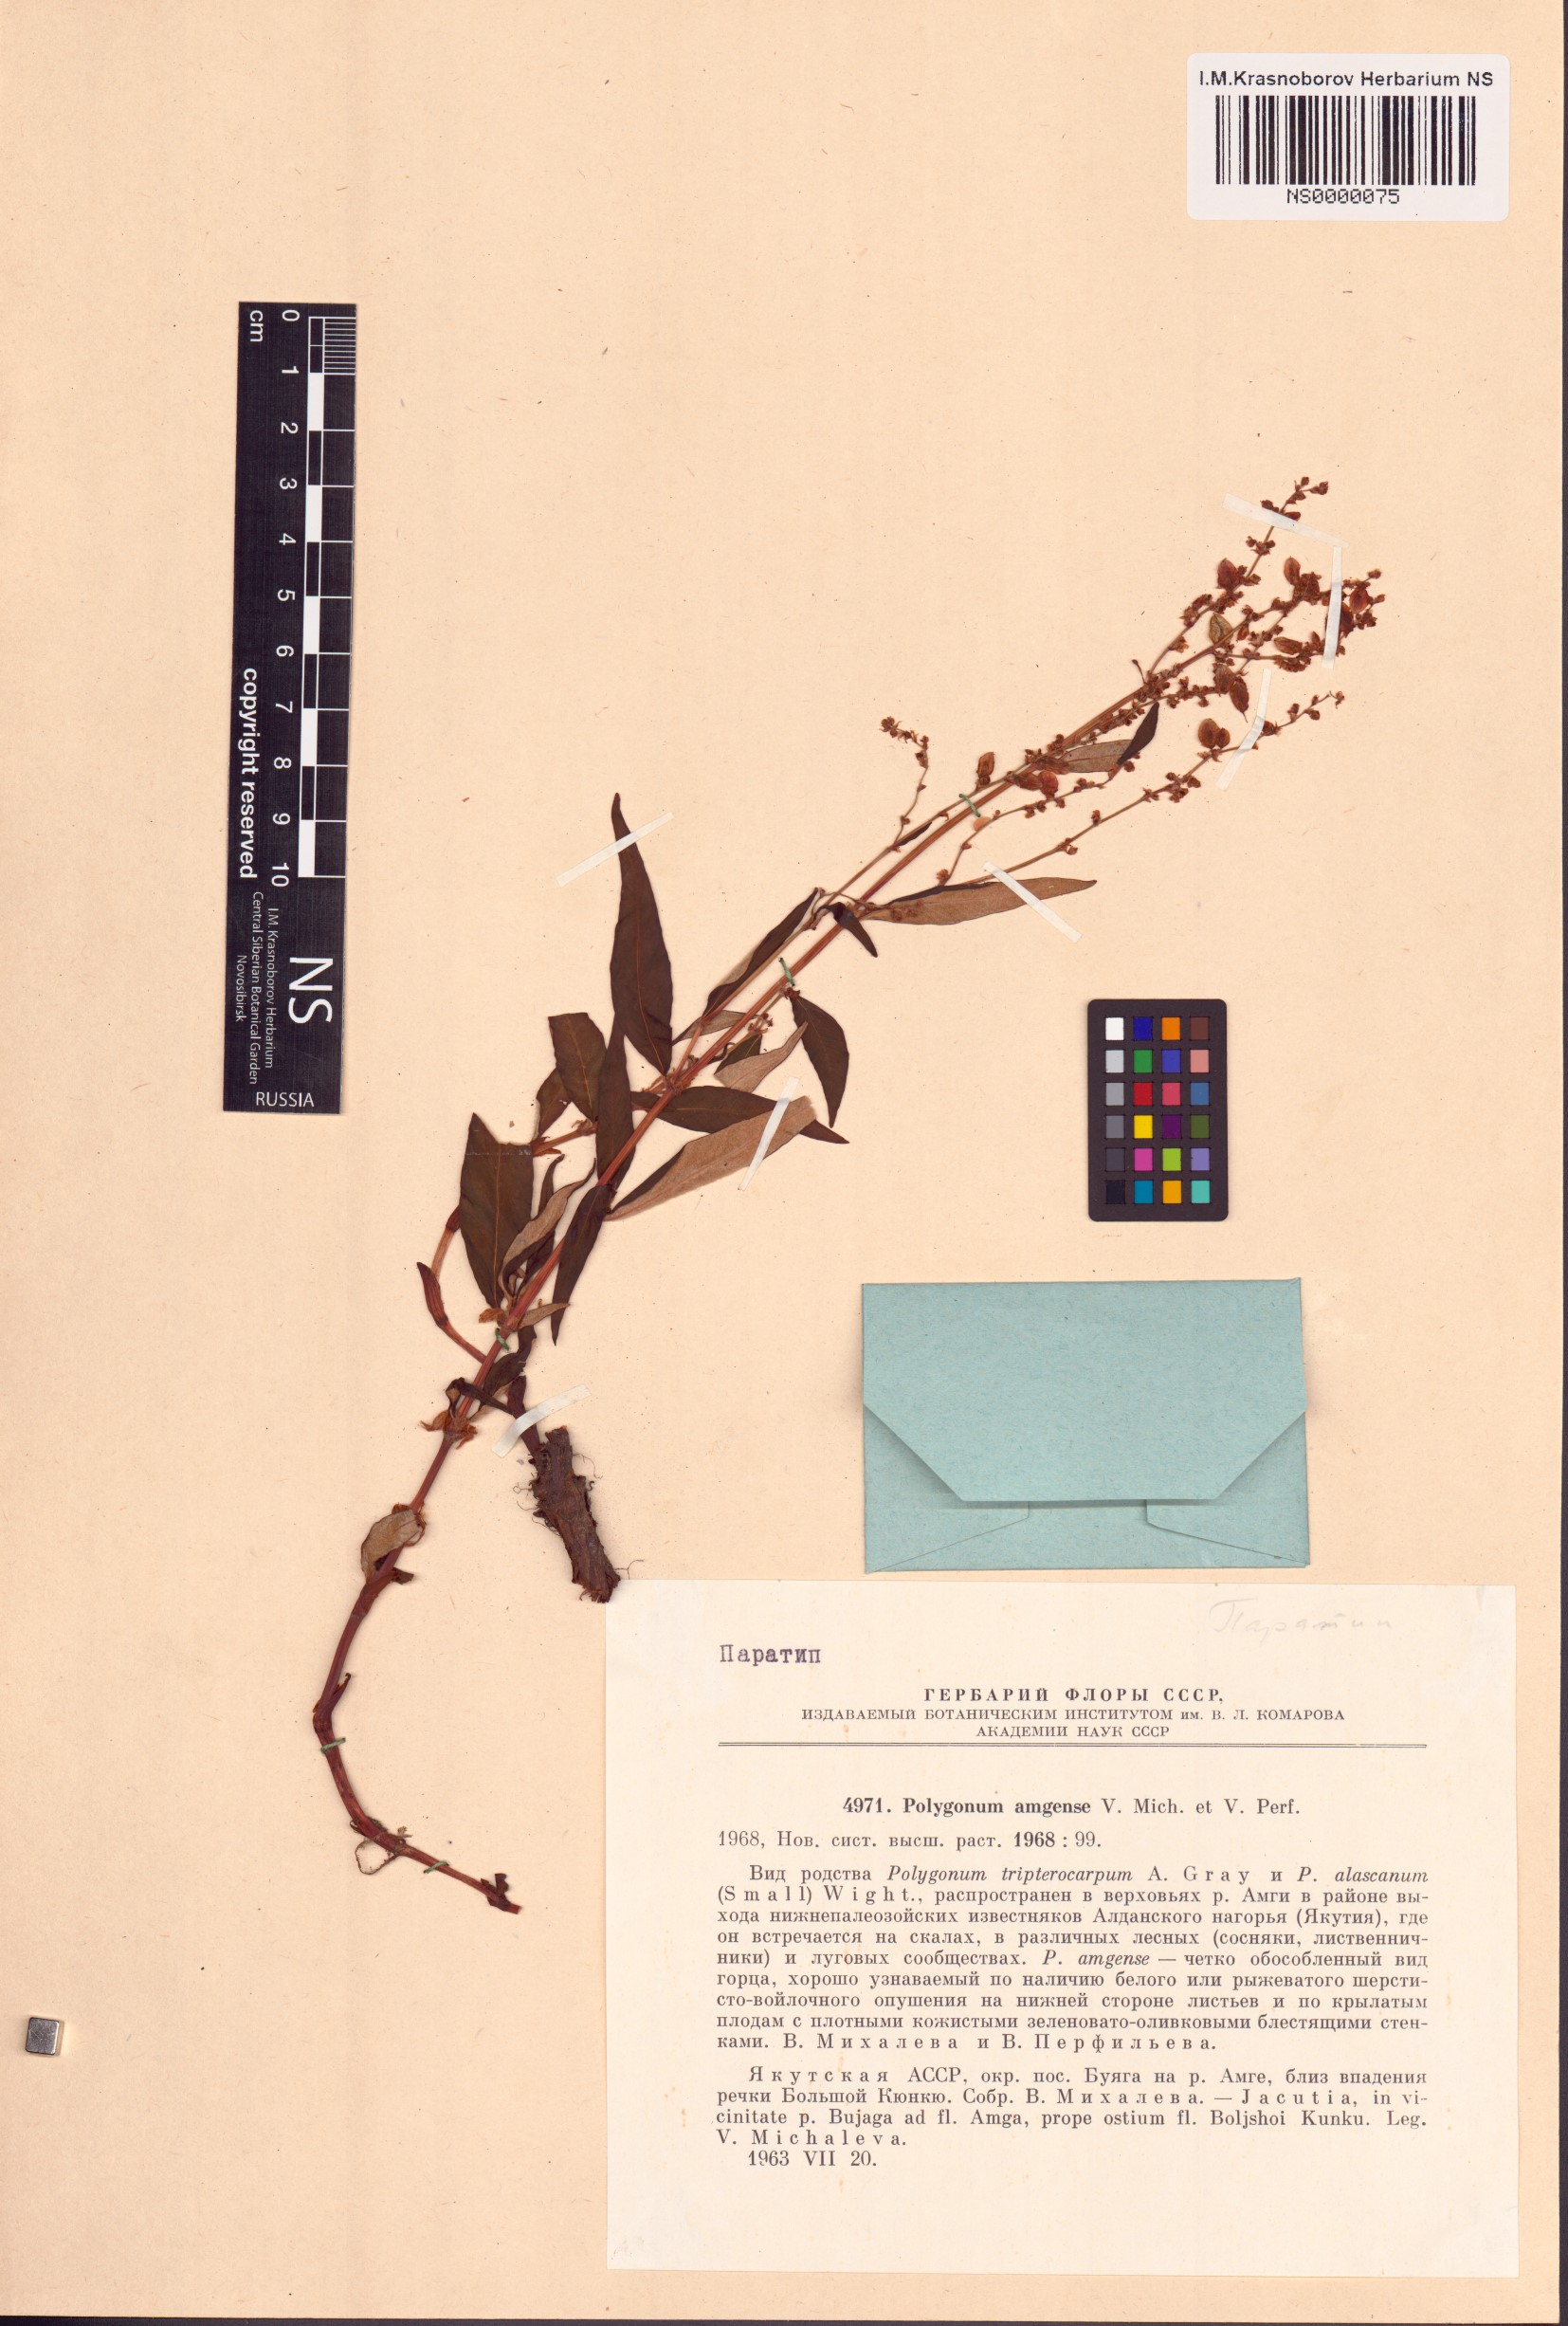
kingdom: Plantae
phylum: Tracheophyta
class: Magnoliopsida
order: Caryophyllales
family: Polygonaceae
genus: Polygonum
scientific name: Polygonum amgense
